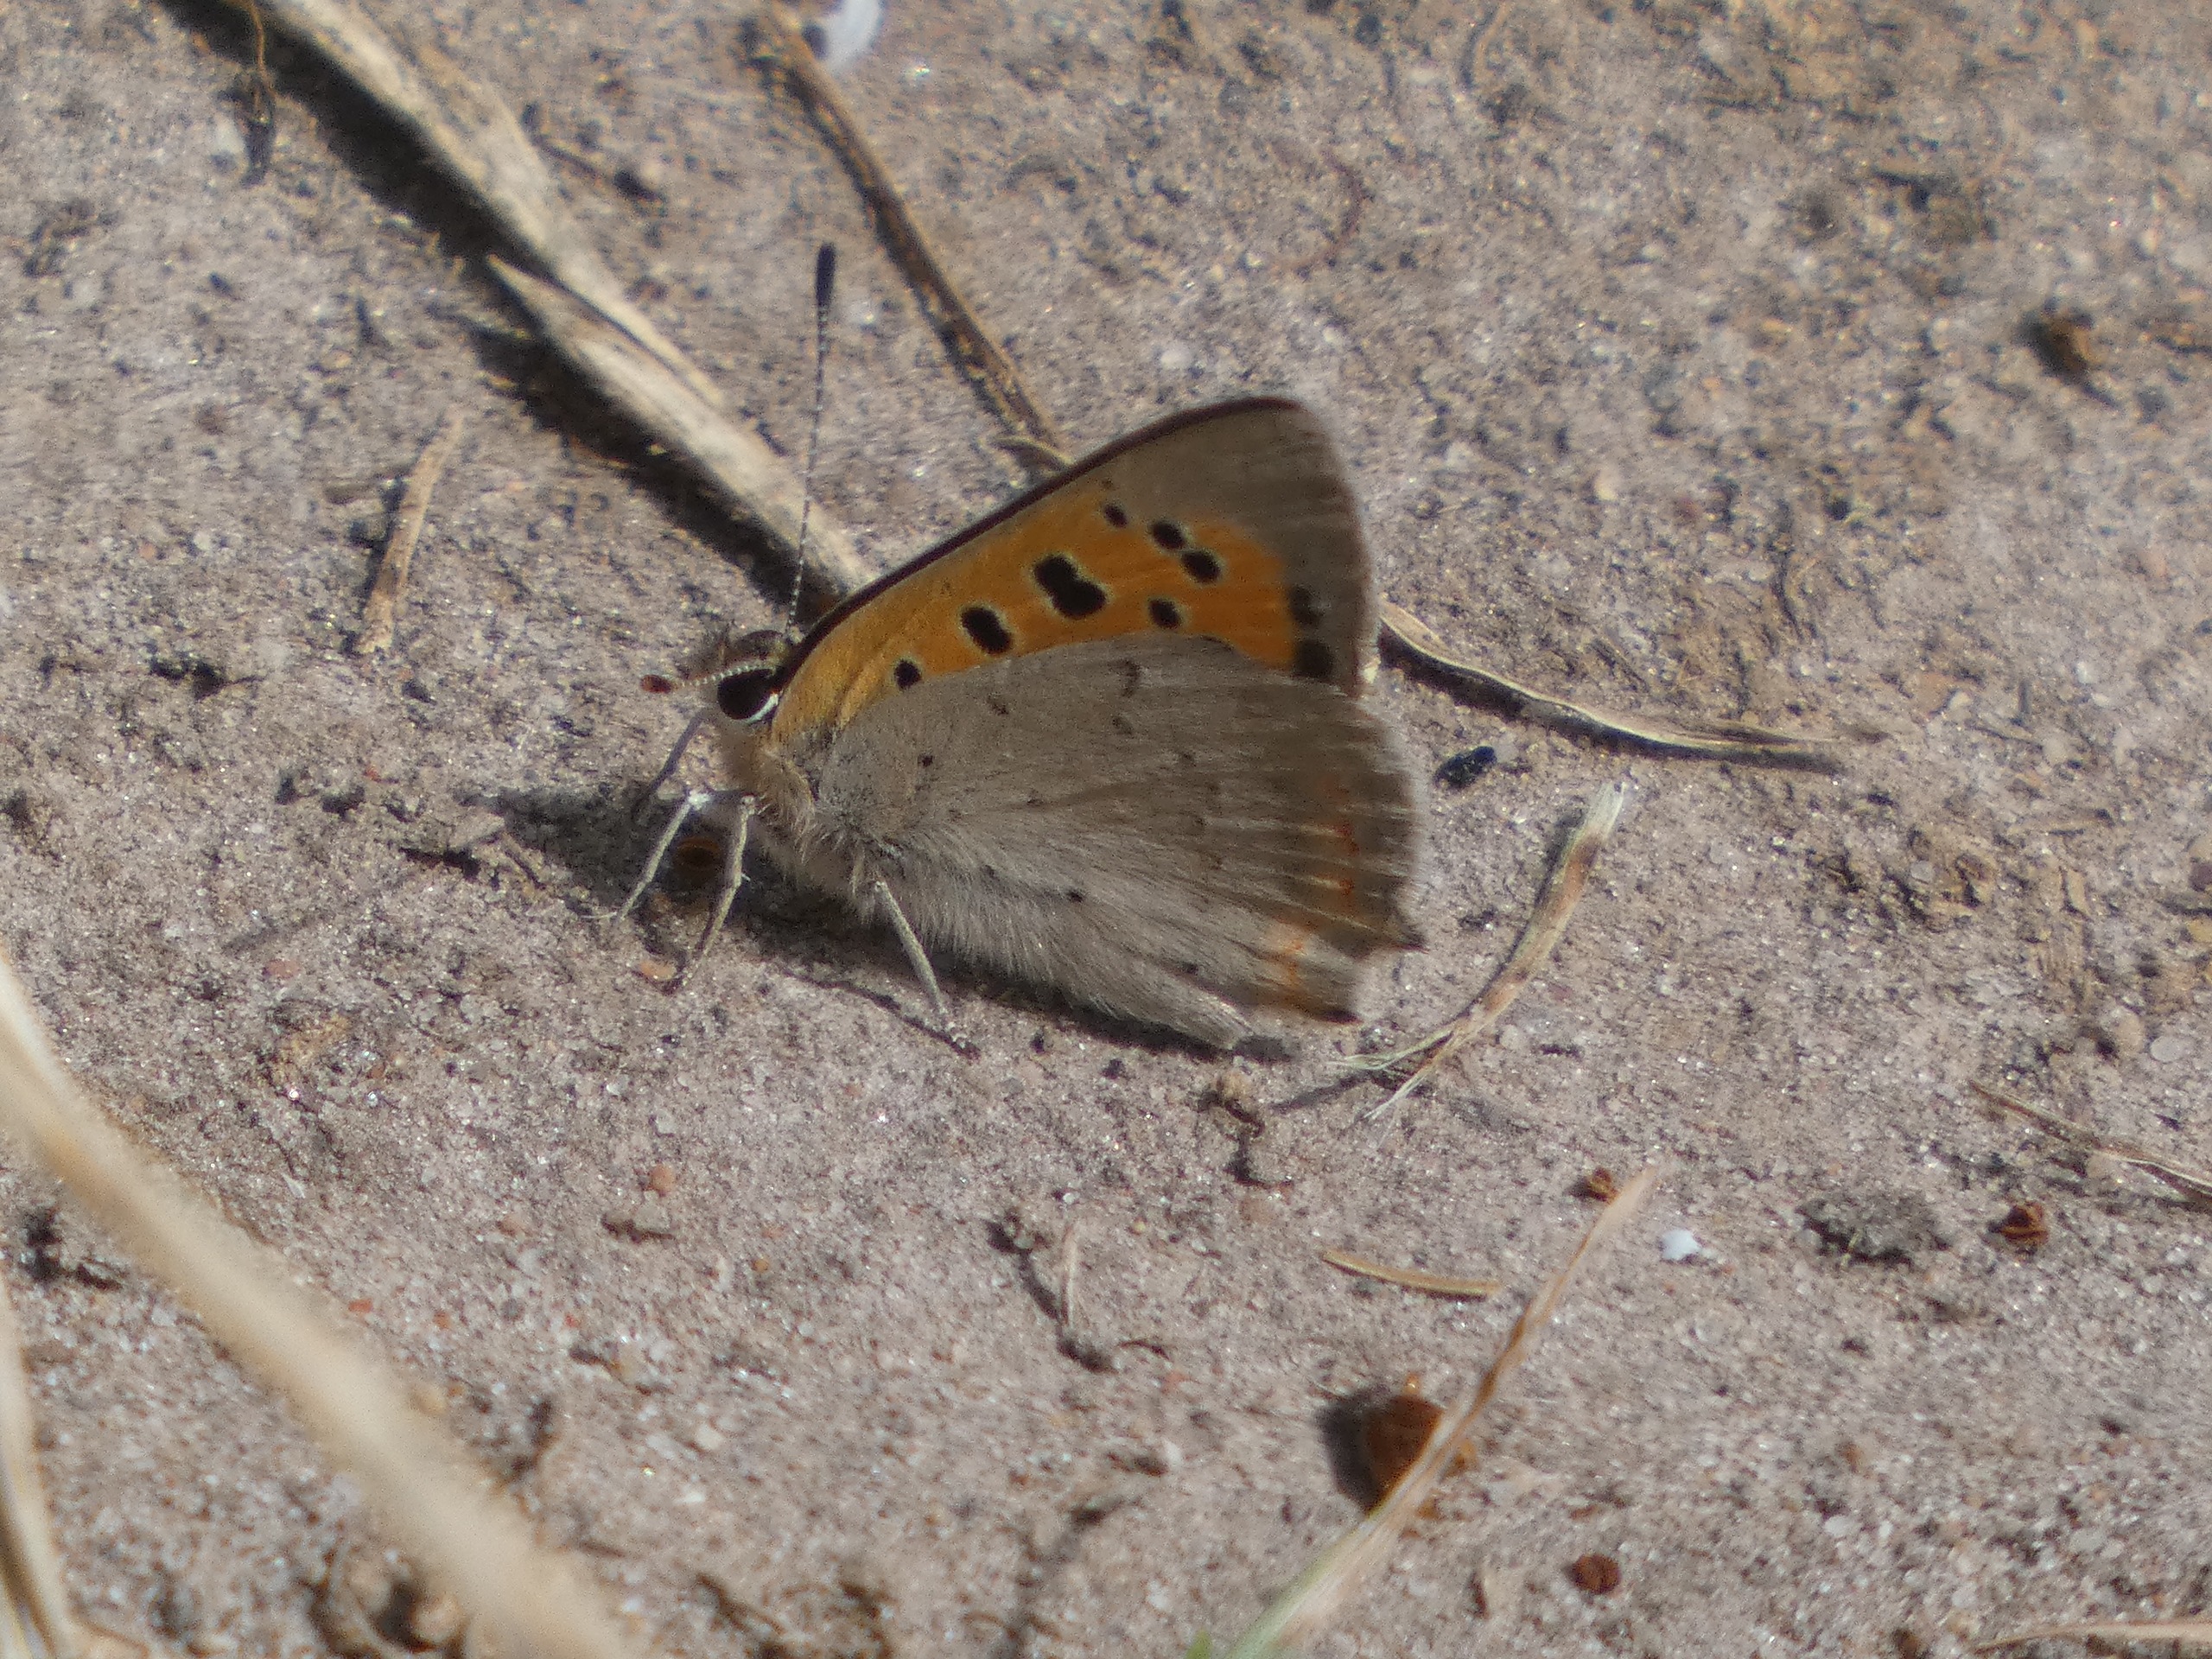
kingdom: Animalia
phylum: Arthropoda
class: Insecta
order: Lepidoptera
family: Lycaenidae
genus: Lycaena
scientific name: Lycaena phlaeas
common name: Lille ildfugl
